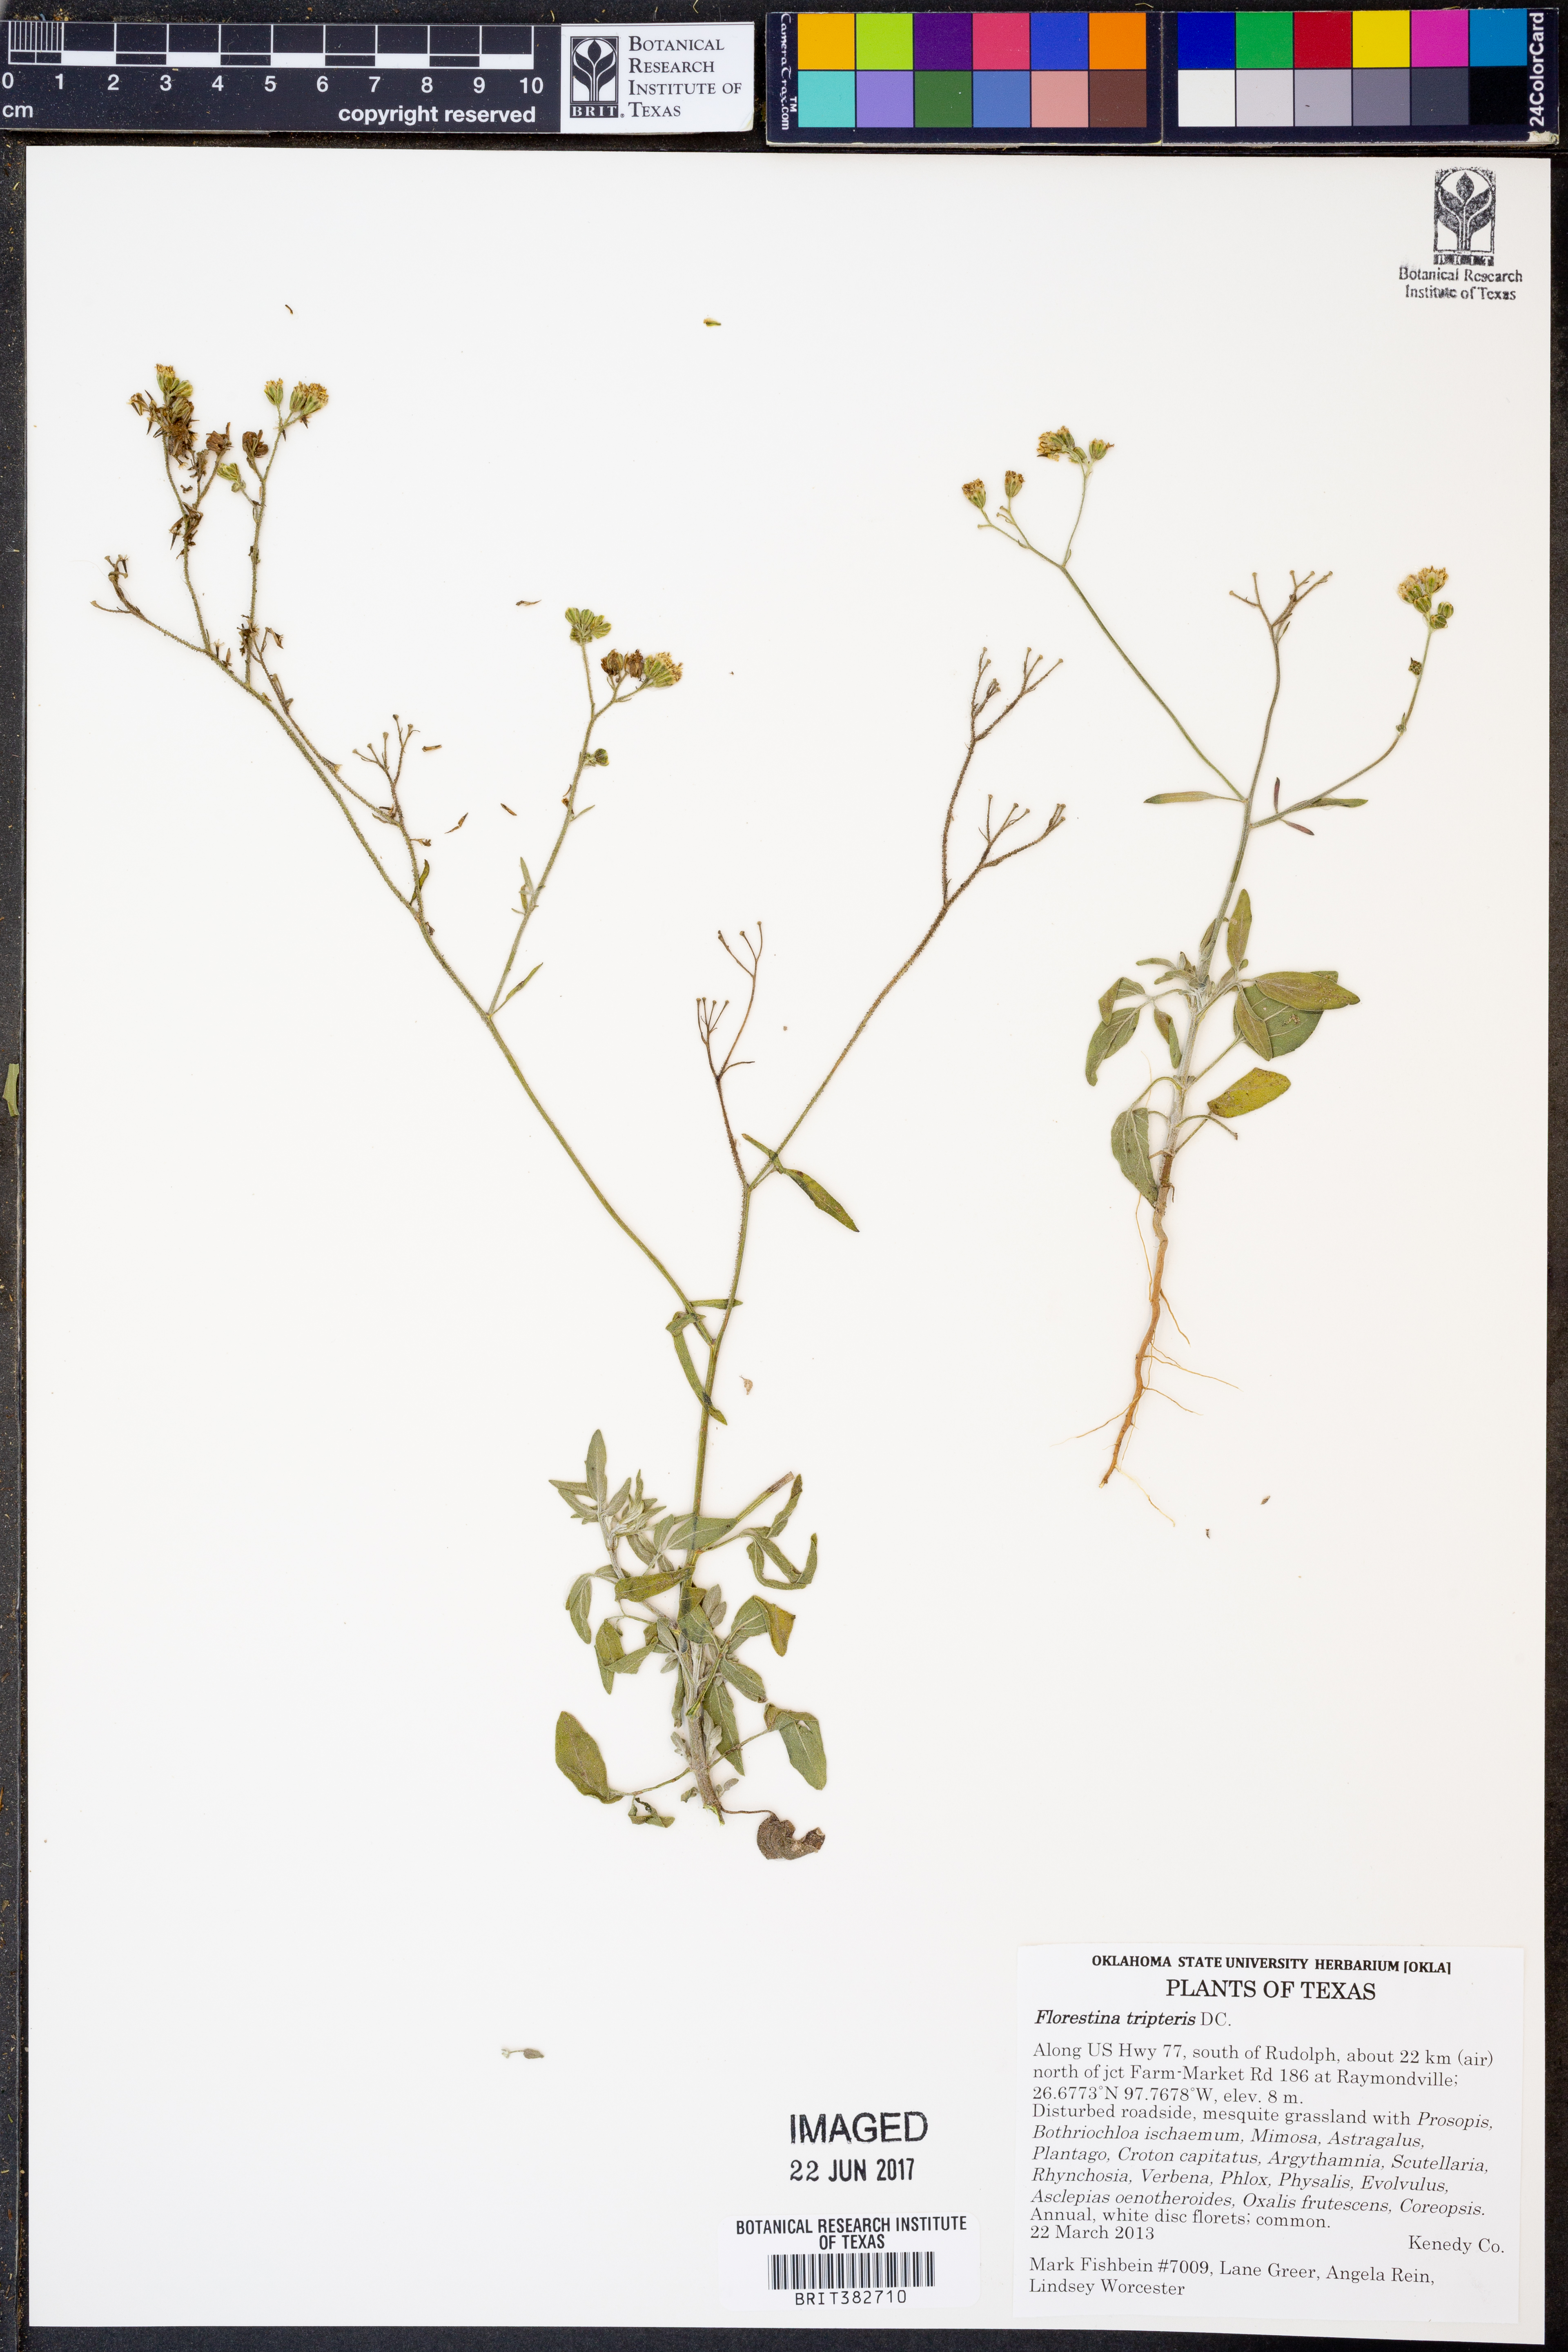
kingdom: Plantae
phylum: Tracheophyta
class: Magnoliopsida
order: Asterales
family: Asteraceae
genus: Florestina
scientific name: Florestina tripteris
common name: Sticky florestina
